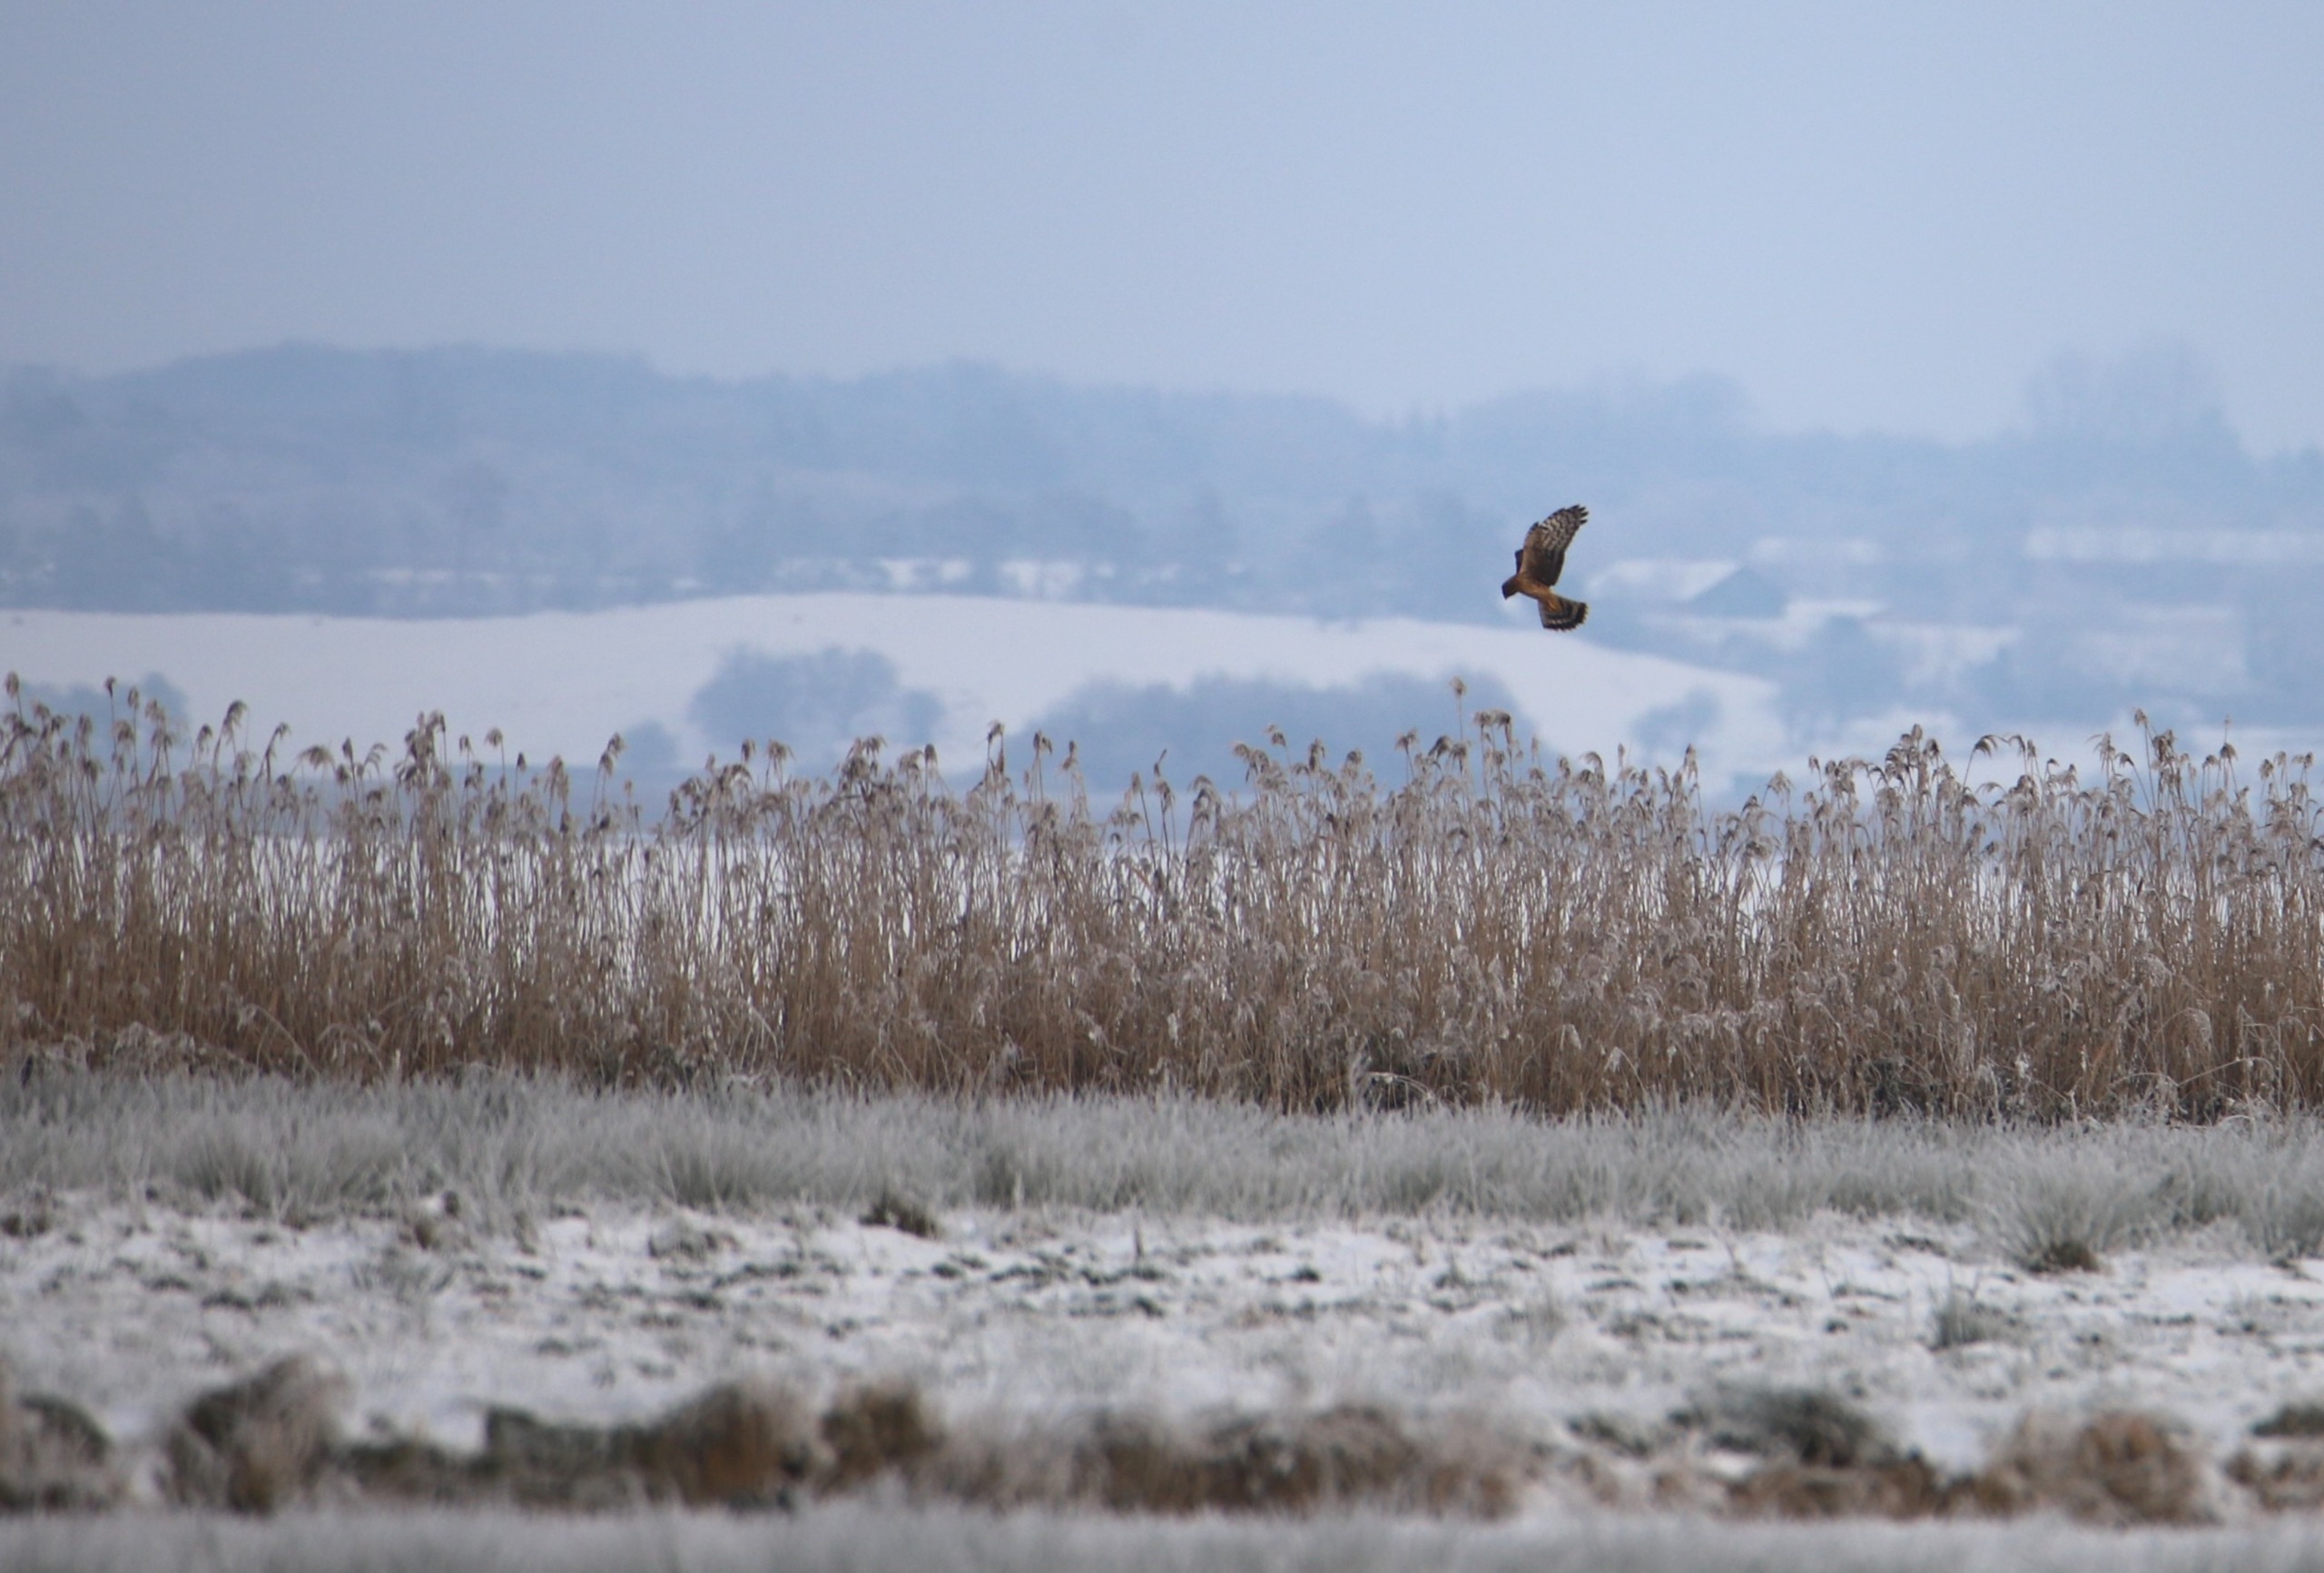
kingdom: Animalia
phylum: Chordata
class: Aves
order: Accipitriformes
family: Accipitridae
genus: Circus
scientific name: Circus cyaneus
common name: Blå kærhøg
